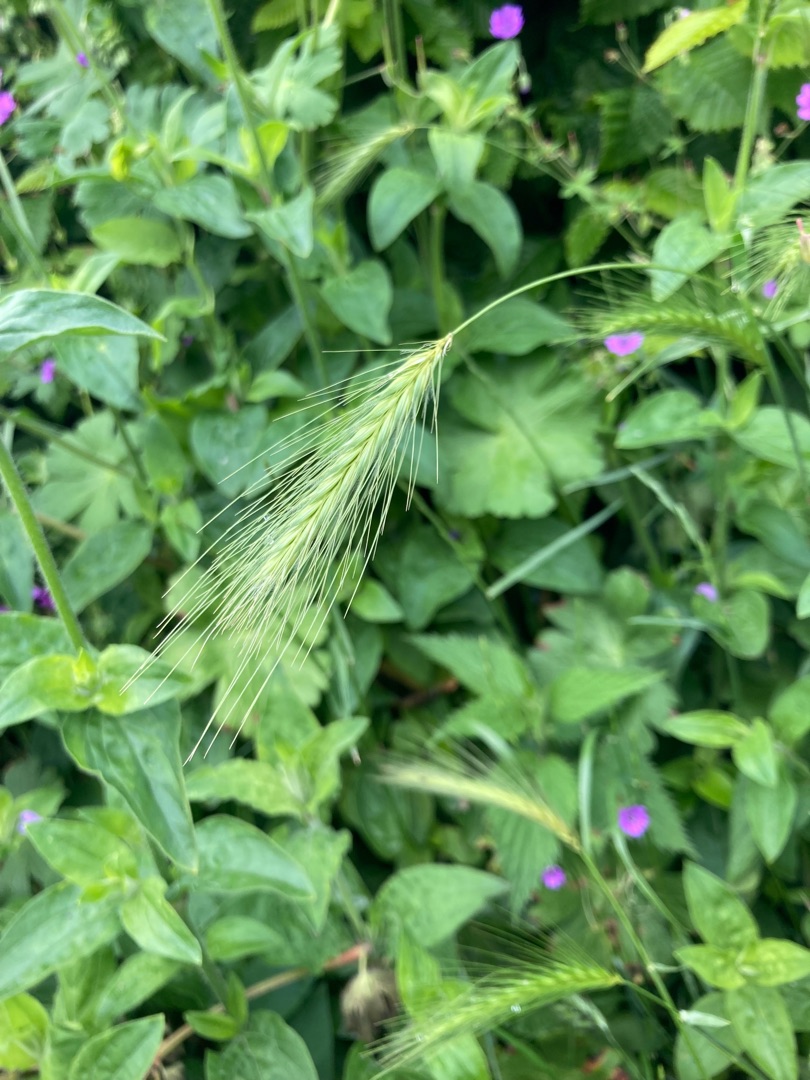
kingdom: Plantae
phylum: Tracheophyta
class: Liliopsida
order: Poales
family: Poaceae
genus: Hordeum
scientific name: Hordeum murinum
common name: Gold byg
